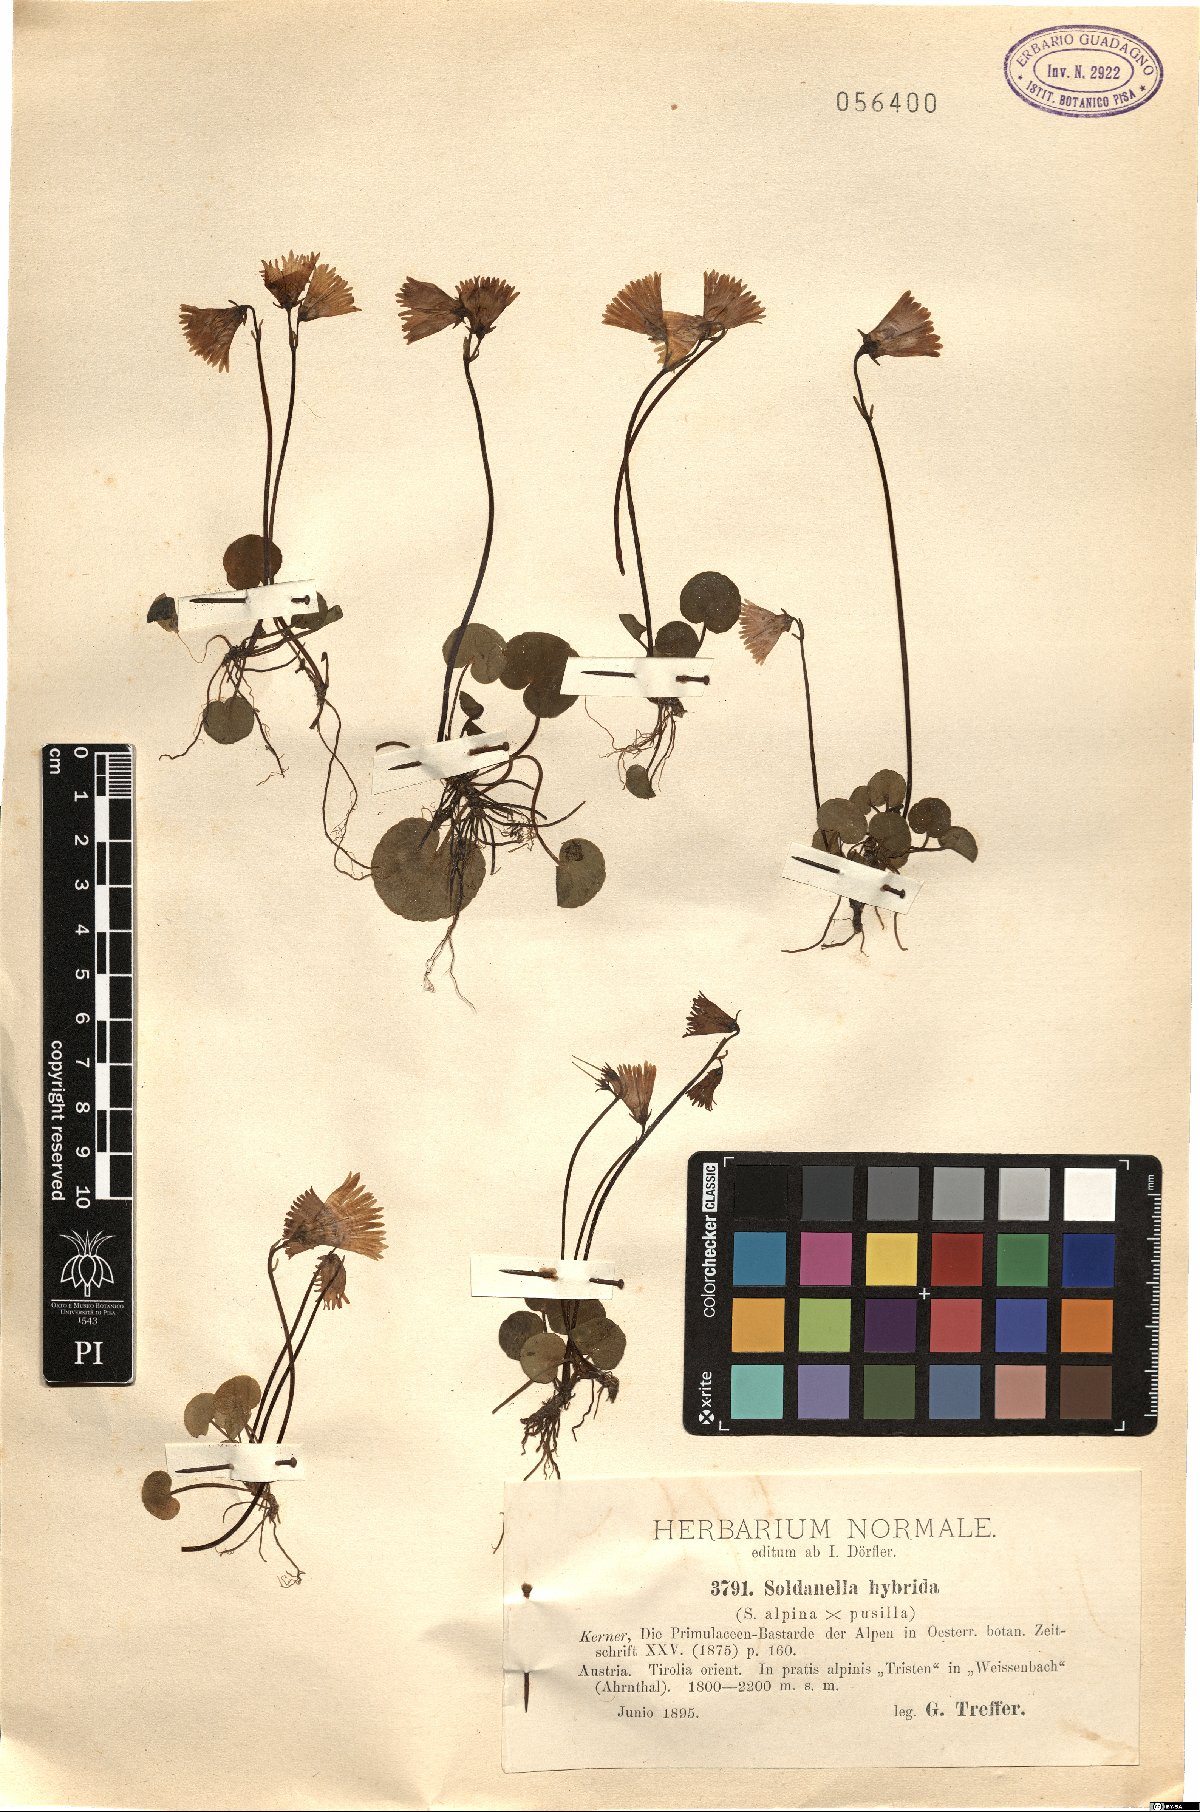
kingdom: Plantae
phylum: Tracheophyta
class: Magnoliopsida
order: Ericales
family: Primulaceae
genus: Soldanella
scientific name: Soldanella hybrida
